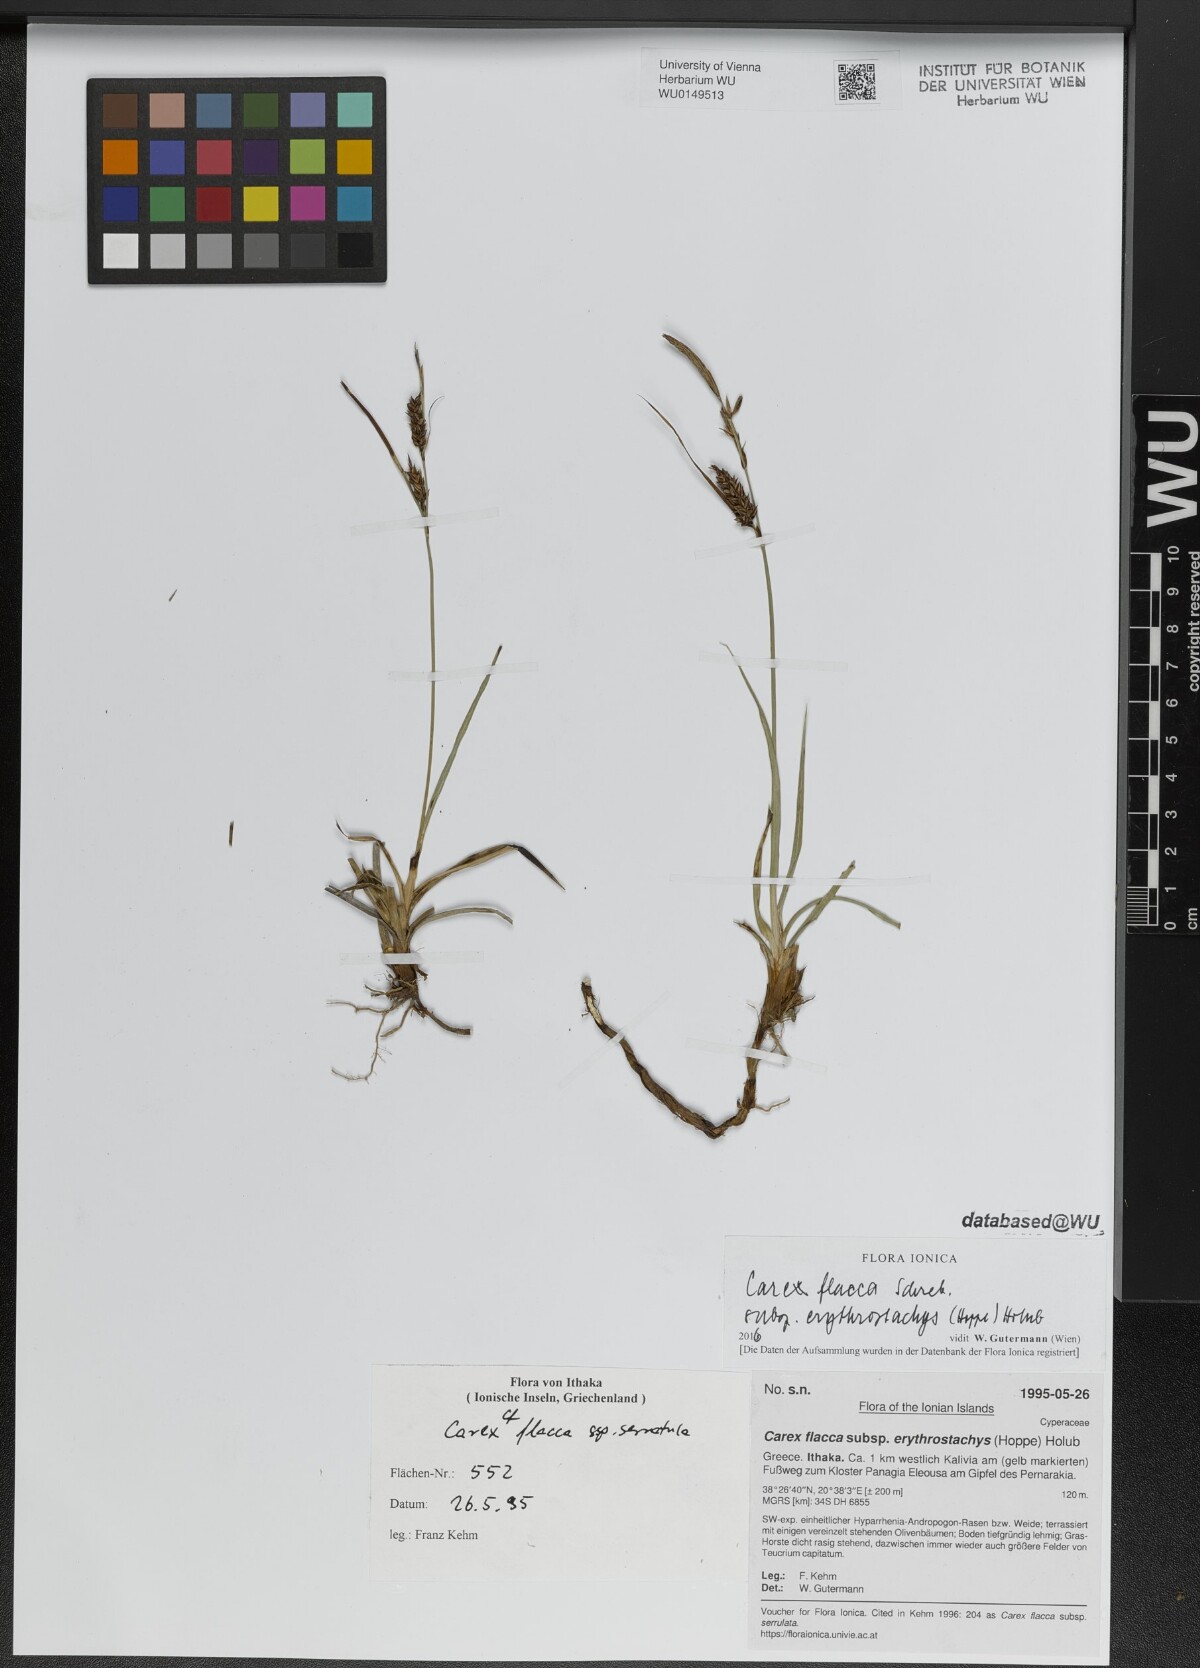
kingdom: Plantae
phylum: Tracheophyta
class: Liliopsida
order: Poales
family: Cyperaceae
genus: Carex
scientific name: Carex flacca
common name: Glaucous sedge
